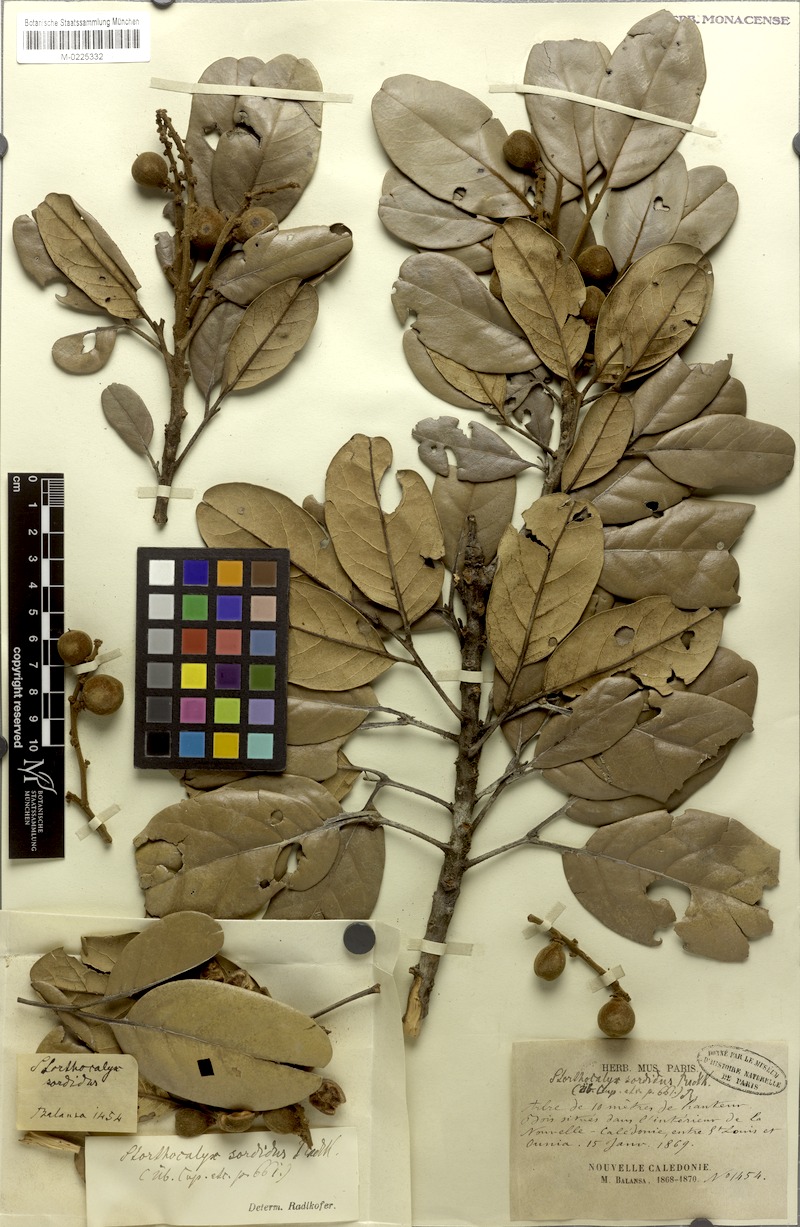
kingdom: Plantae
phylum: Tracheophyta
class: Magnoliopsida
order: Sapindales
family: Sapindaceae
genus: Storthocalyx
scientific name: Storthocalyx sordidus
